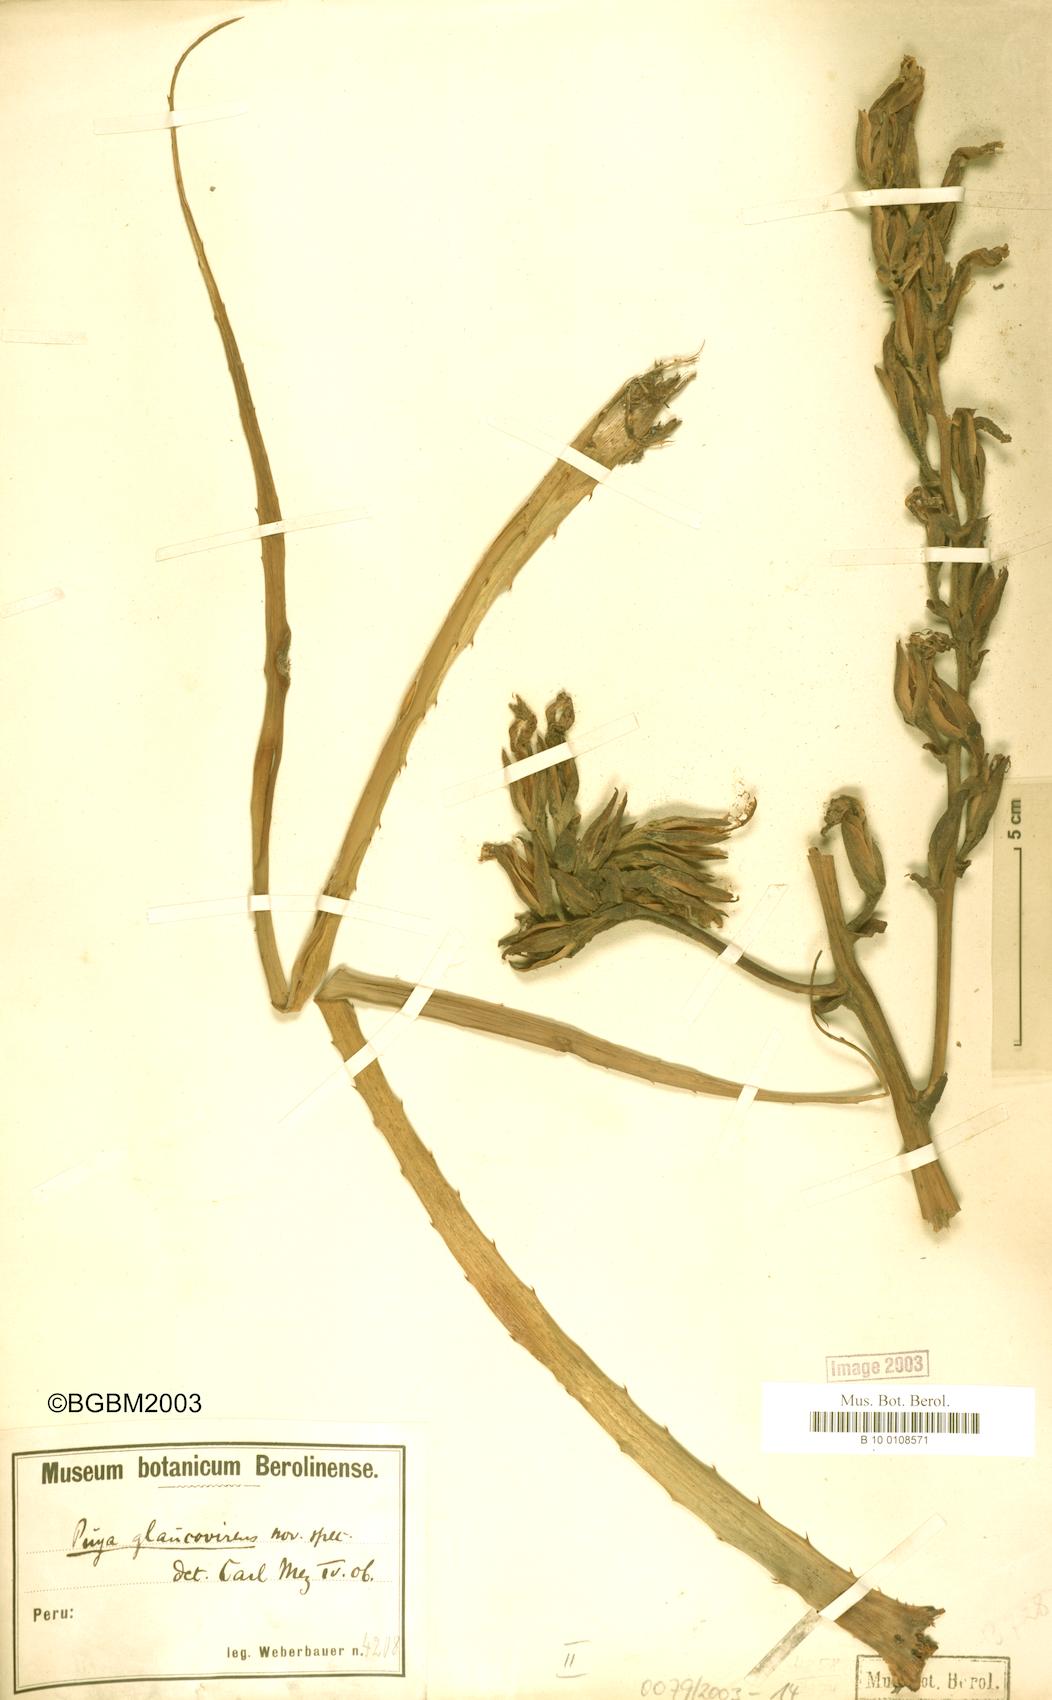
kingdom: Plantae
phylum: Tracheophyta
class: Liliopsida
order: Poales
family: Bromeliaceae
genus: Puya
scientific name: Puya glaucovirens
